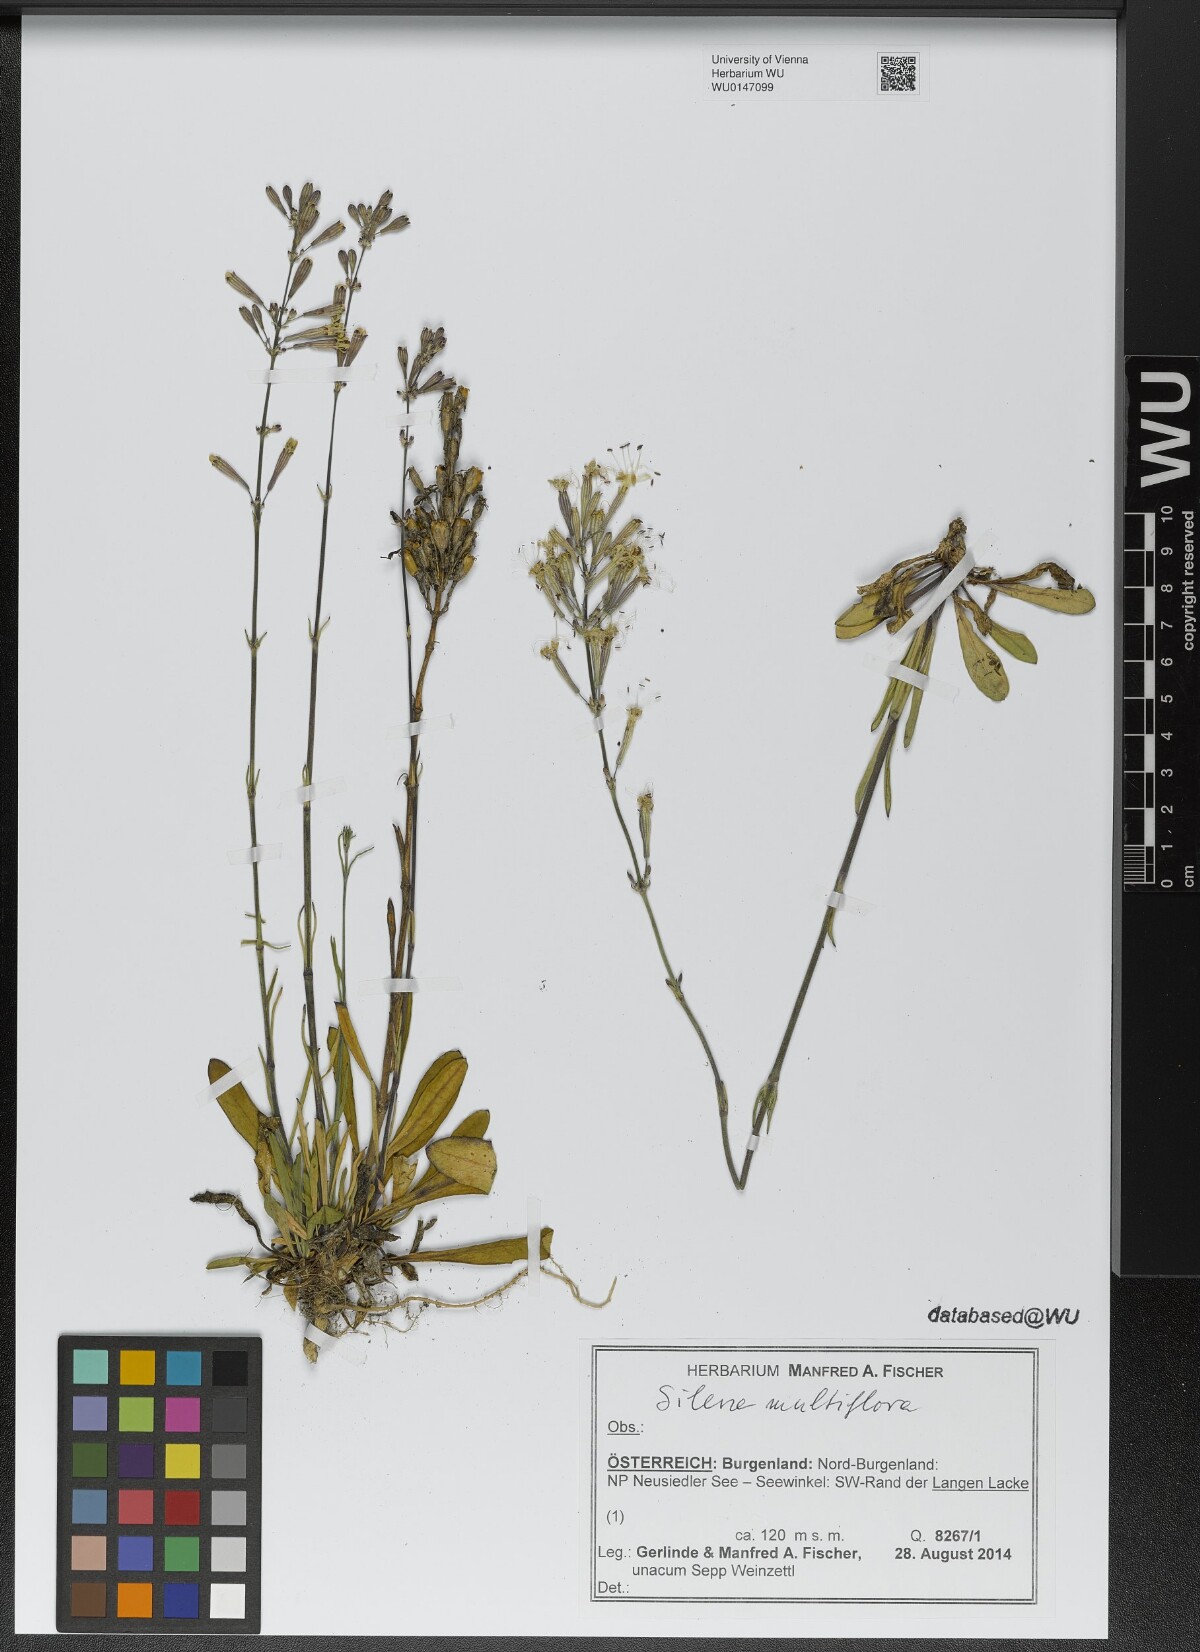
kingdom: Plantae
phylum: Tracheophyta
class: Magnoliopsida
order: Caryophyllales
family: Caryophyllaceae
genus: Silene
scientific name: Silene multiflora
